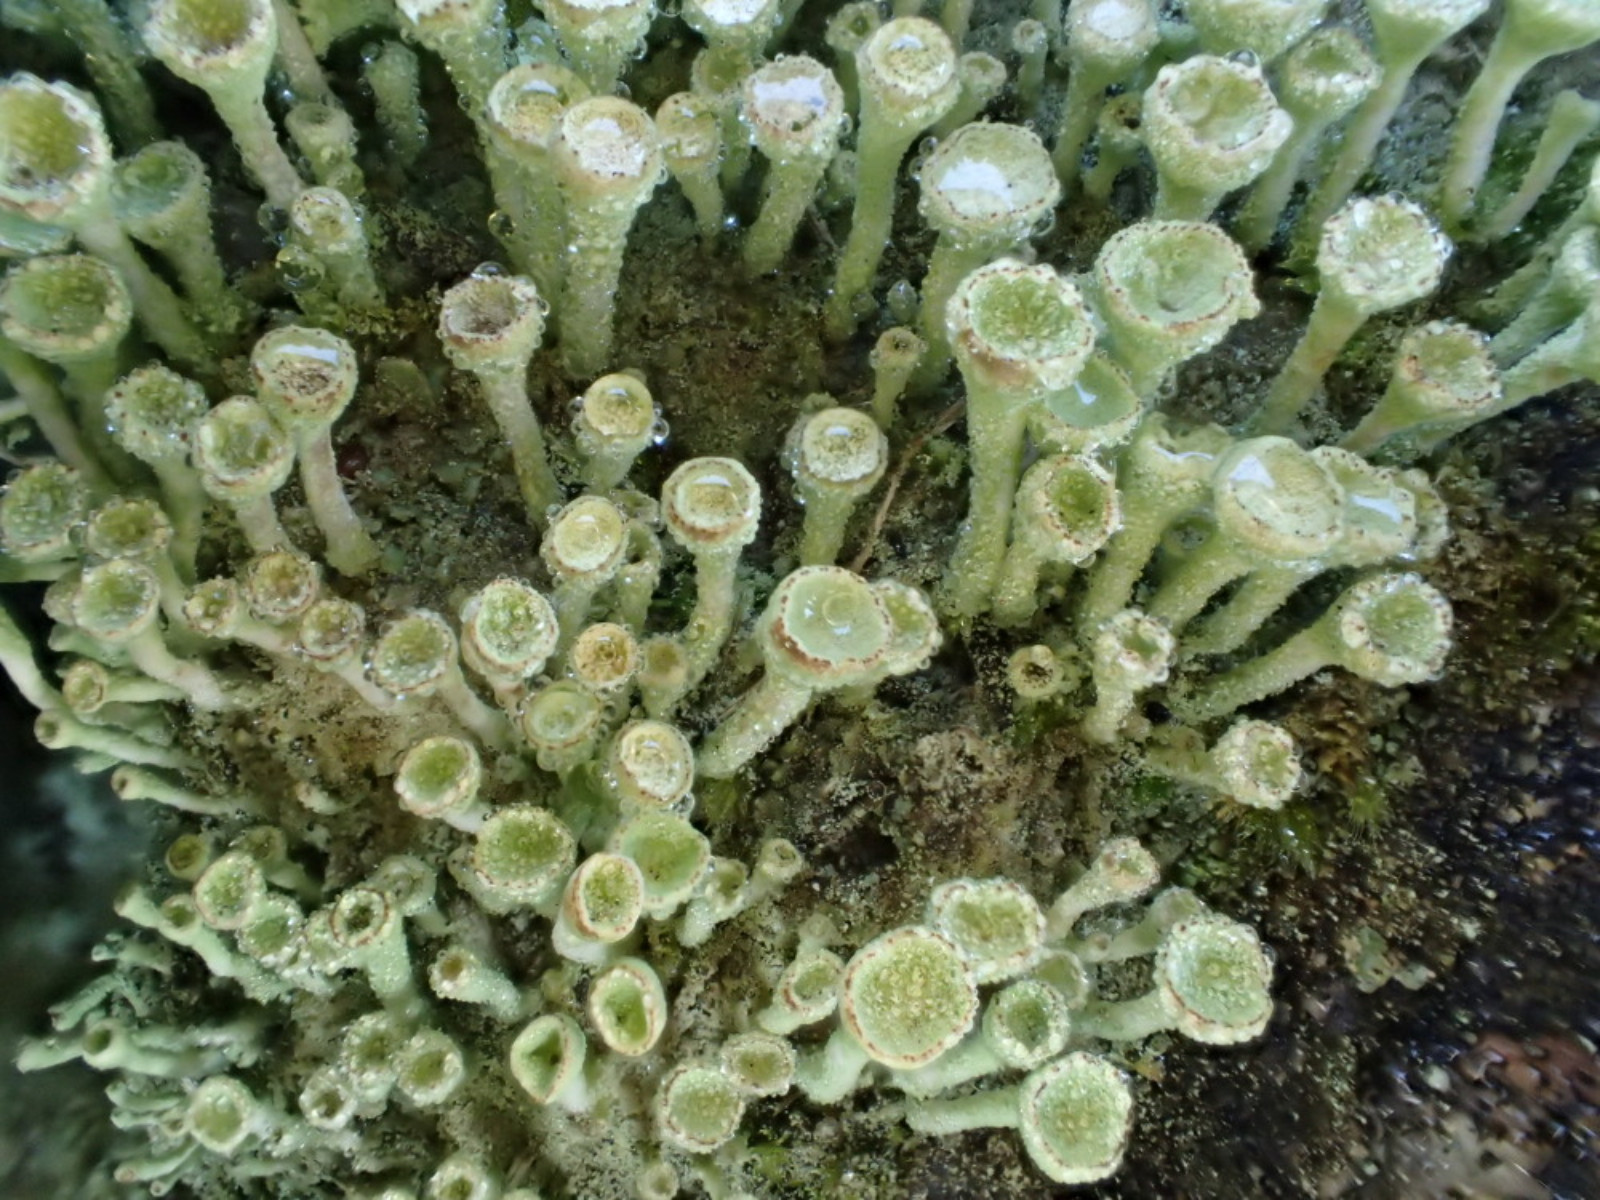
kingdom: Fungi
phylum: Ascomycota
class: Lecanoromycetes
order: Lecanorales
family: Cladoniaceae
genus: Cladonia
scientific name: Cladonia
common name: brungrøn bægerlav
